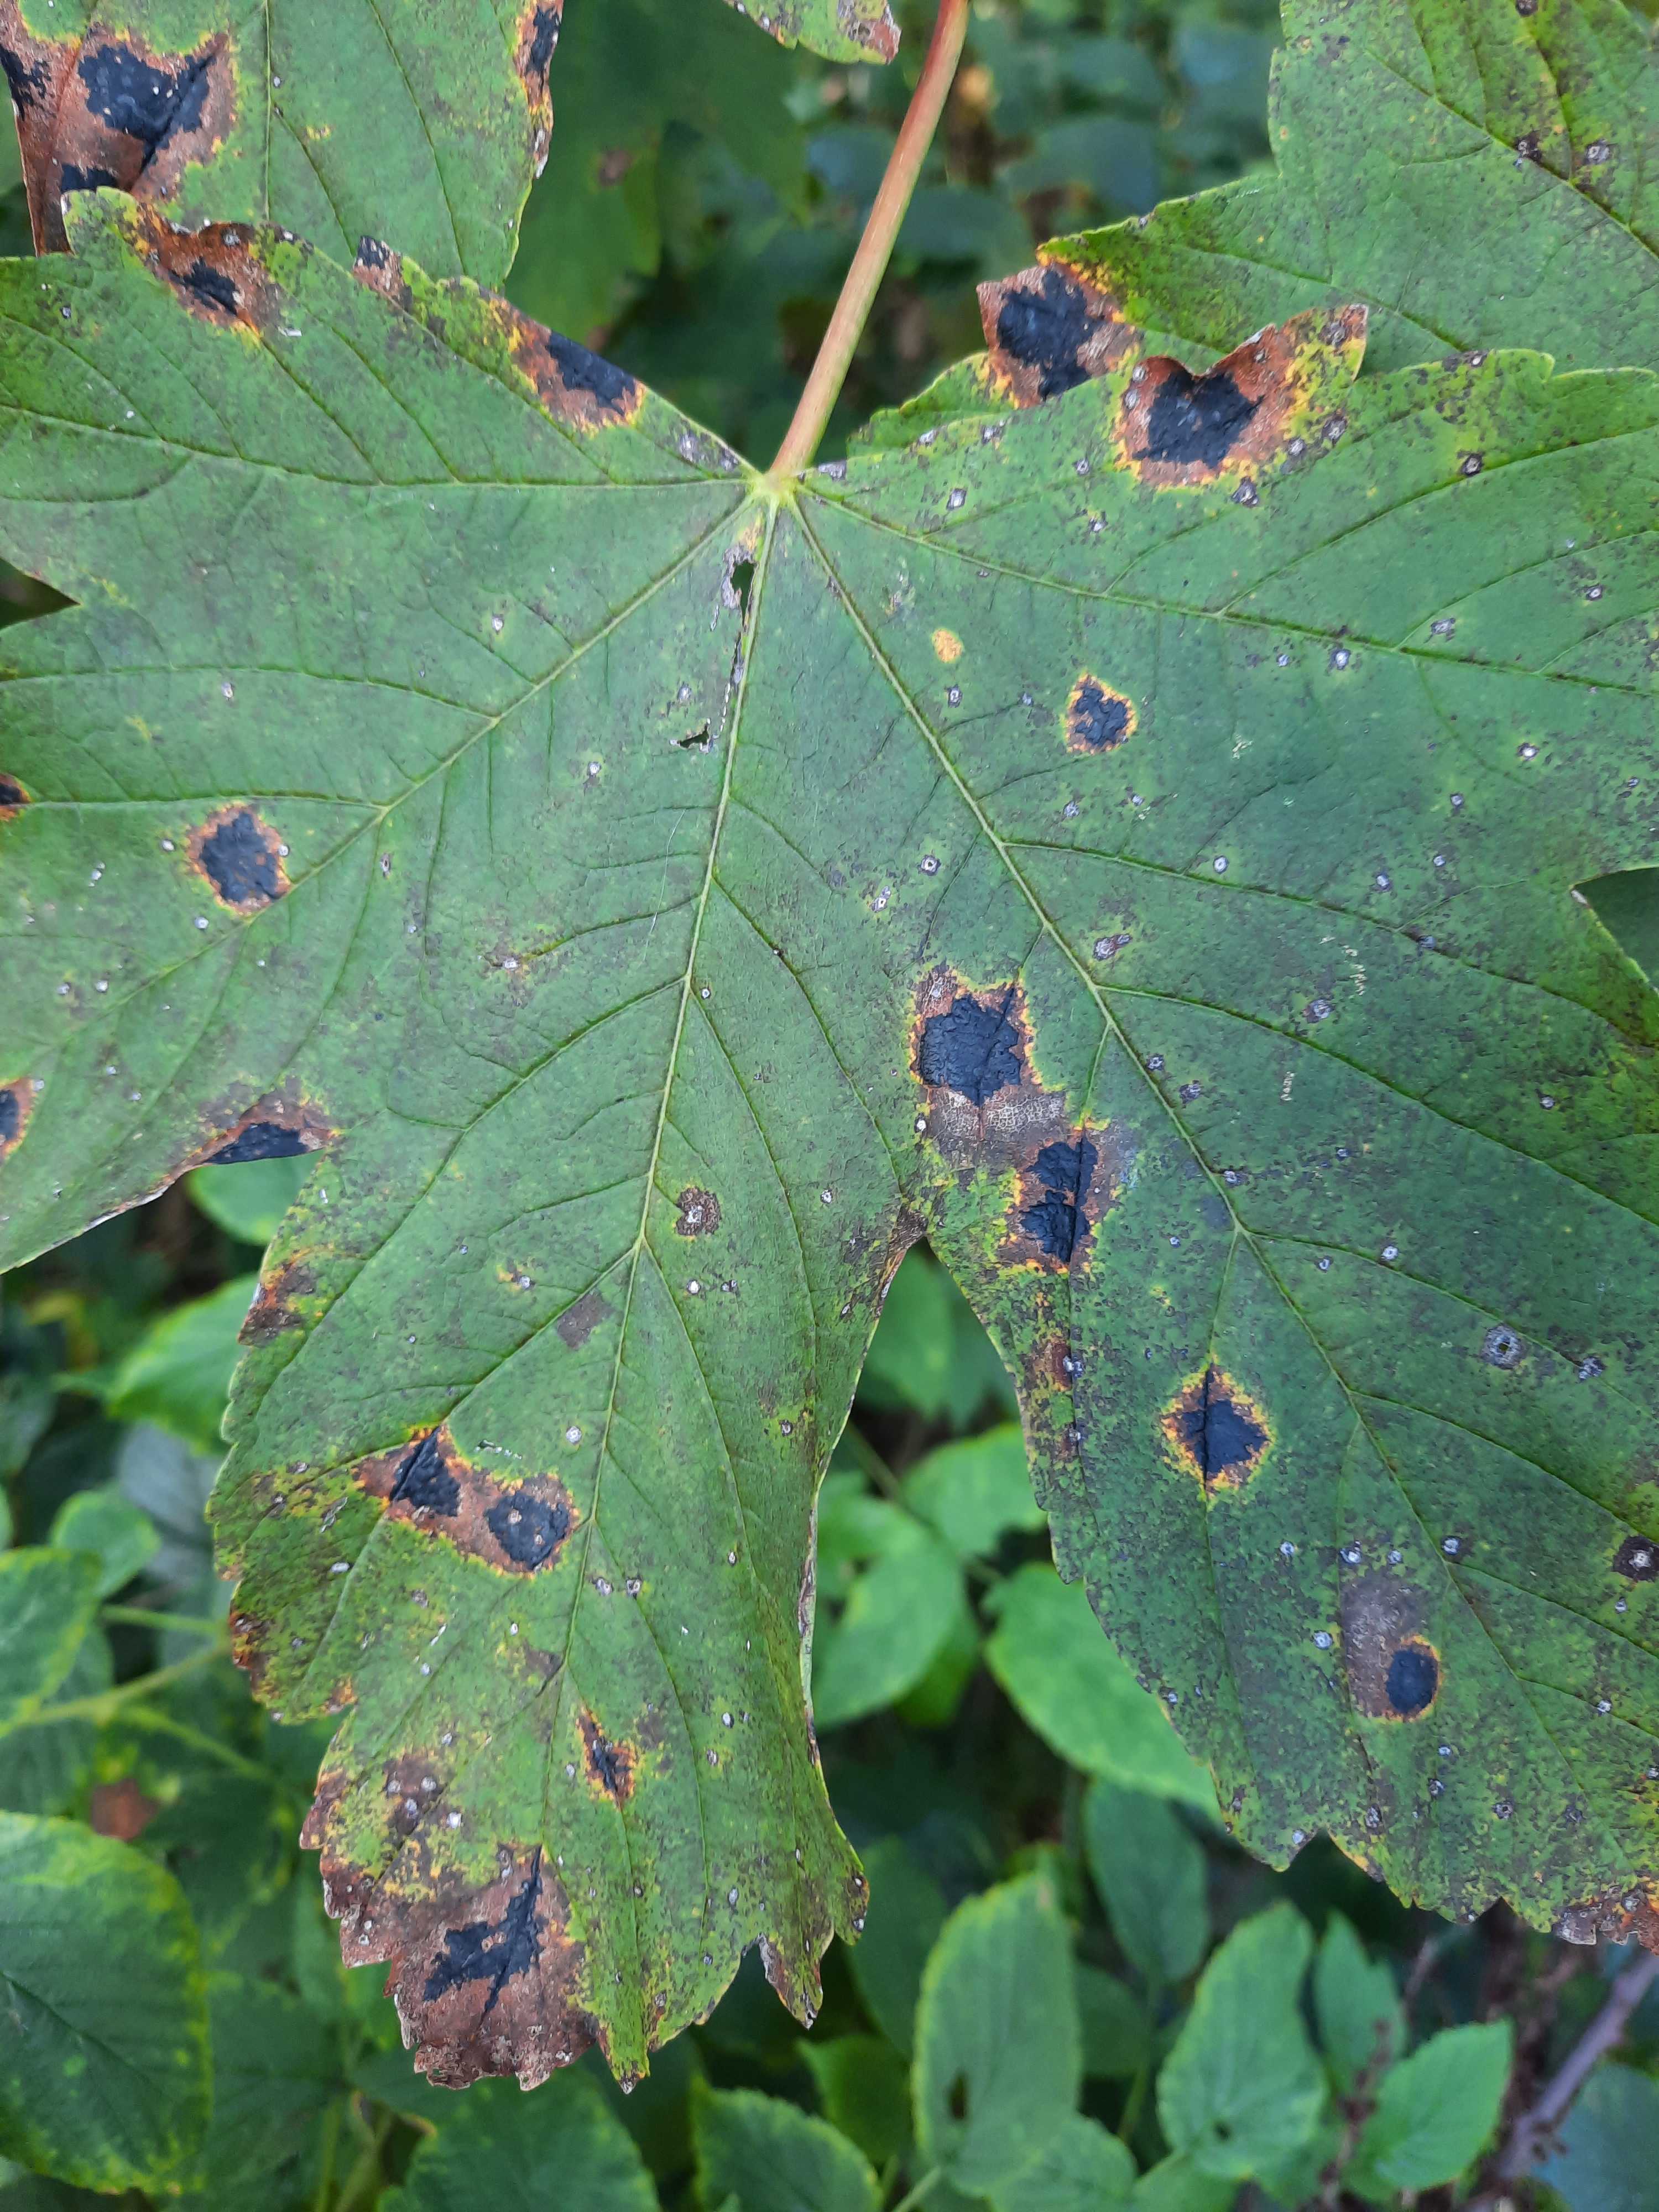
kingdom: Fungi
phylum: Ascomycota
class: Leotiomycetes
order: Rhytismatales
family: Rhytismataceae
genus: Rhytisma
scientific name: Rhytisma acerinum
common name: ahorn-rynkeplet
